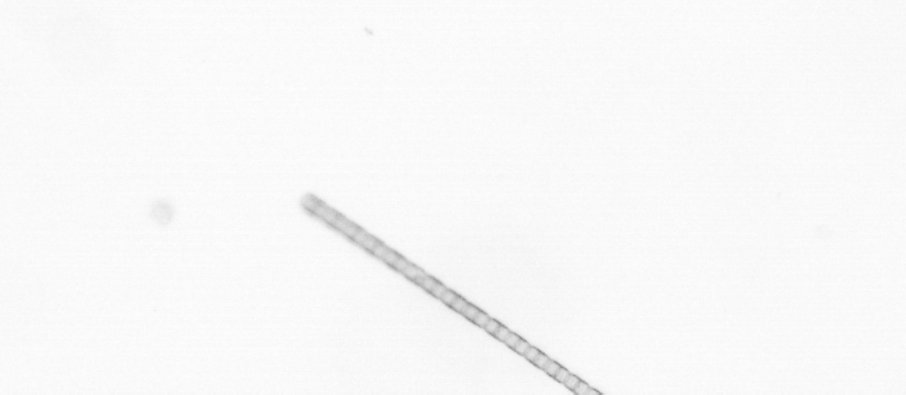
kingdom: Chromista
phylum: Ochrophyta
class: Bacillariophyceae
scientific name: Bacillariophyceae
